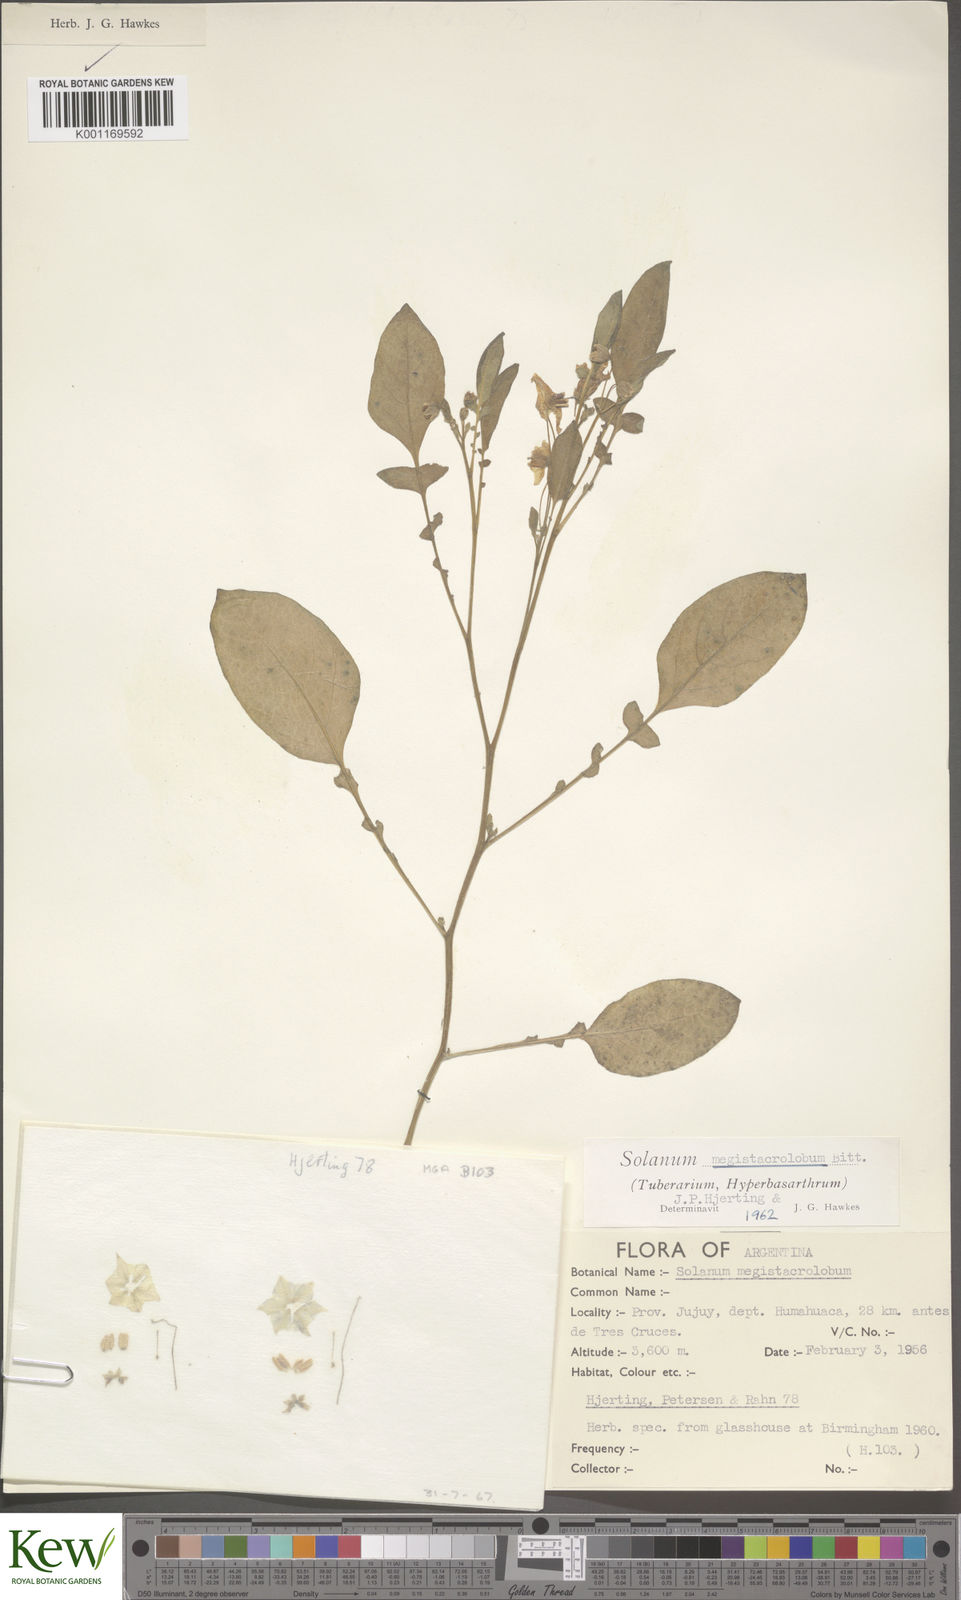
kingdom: Plantae
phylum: Tracheophyta
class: Magnoliopsida
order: Solanales
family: Solanaceae
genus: Solanum
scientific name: Solanum boliviense
